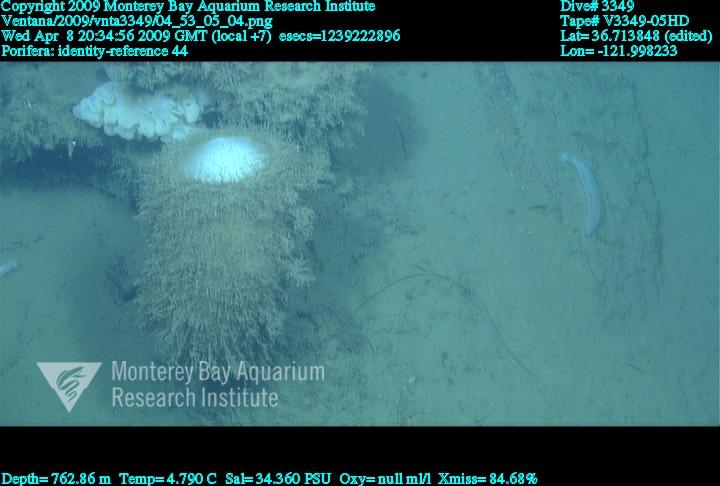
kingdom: Animalia
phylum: Porifera
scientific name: Porifera
